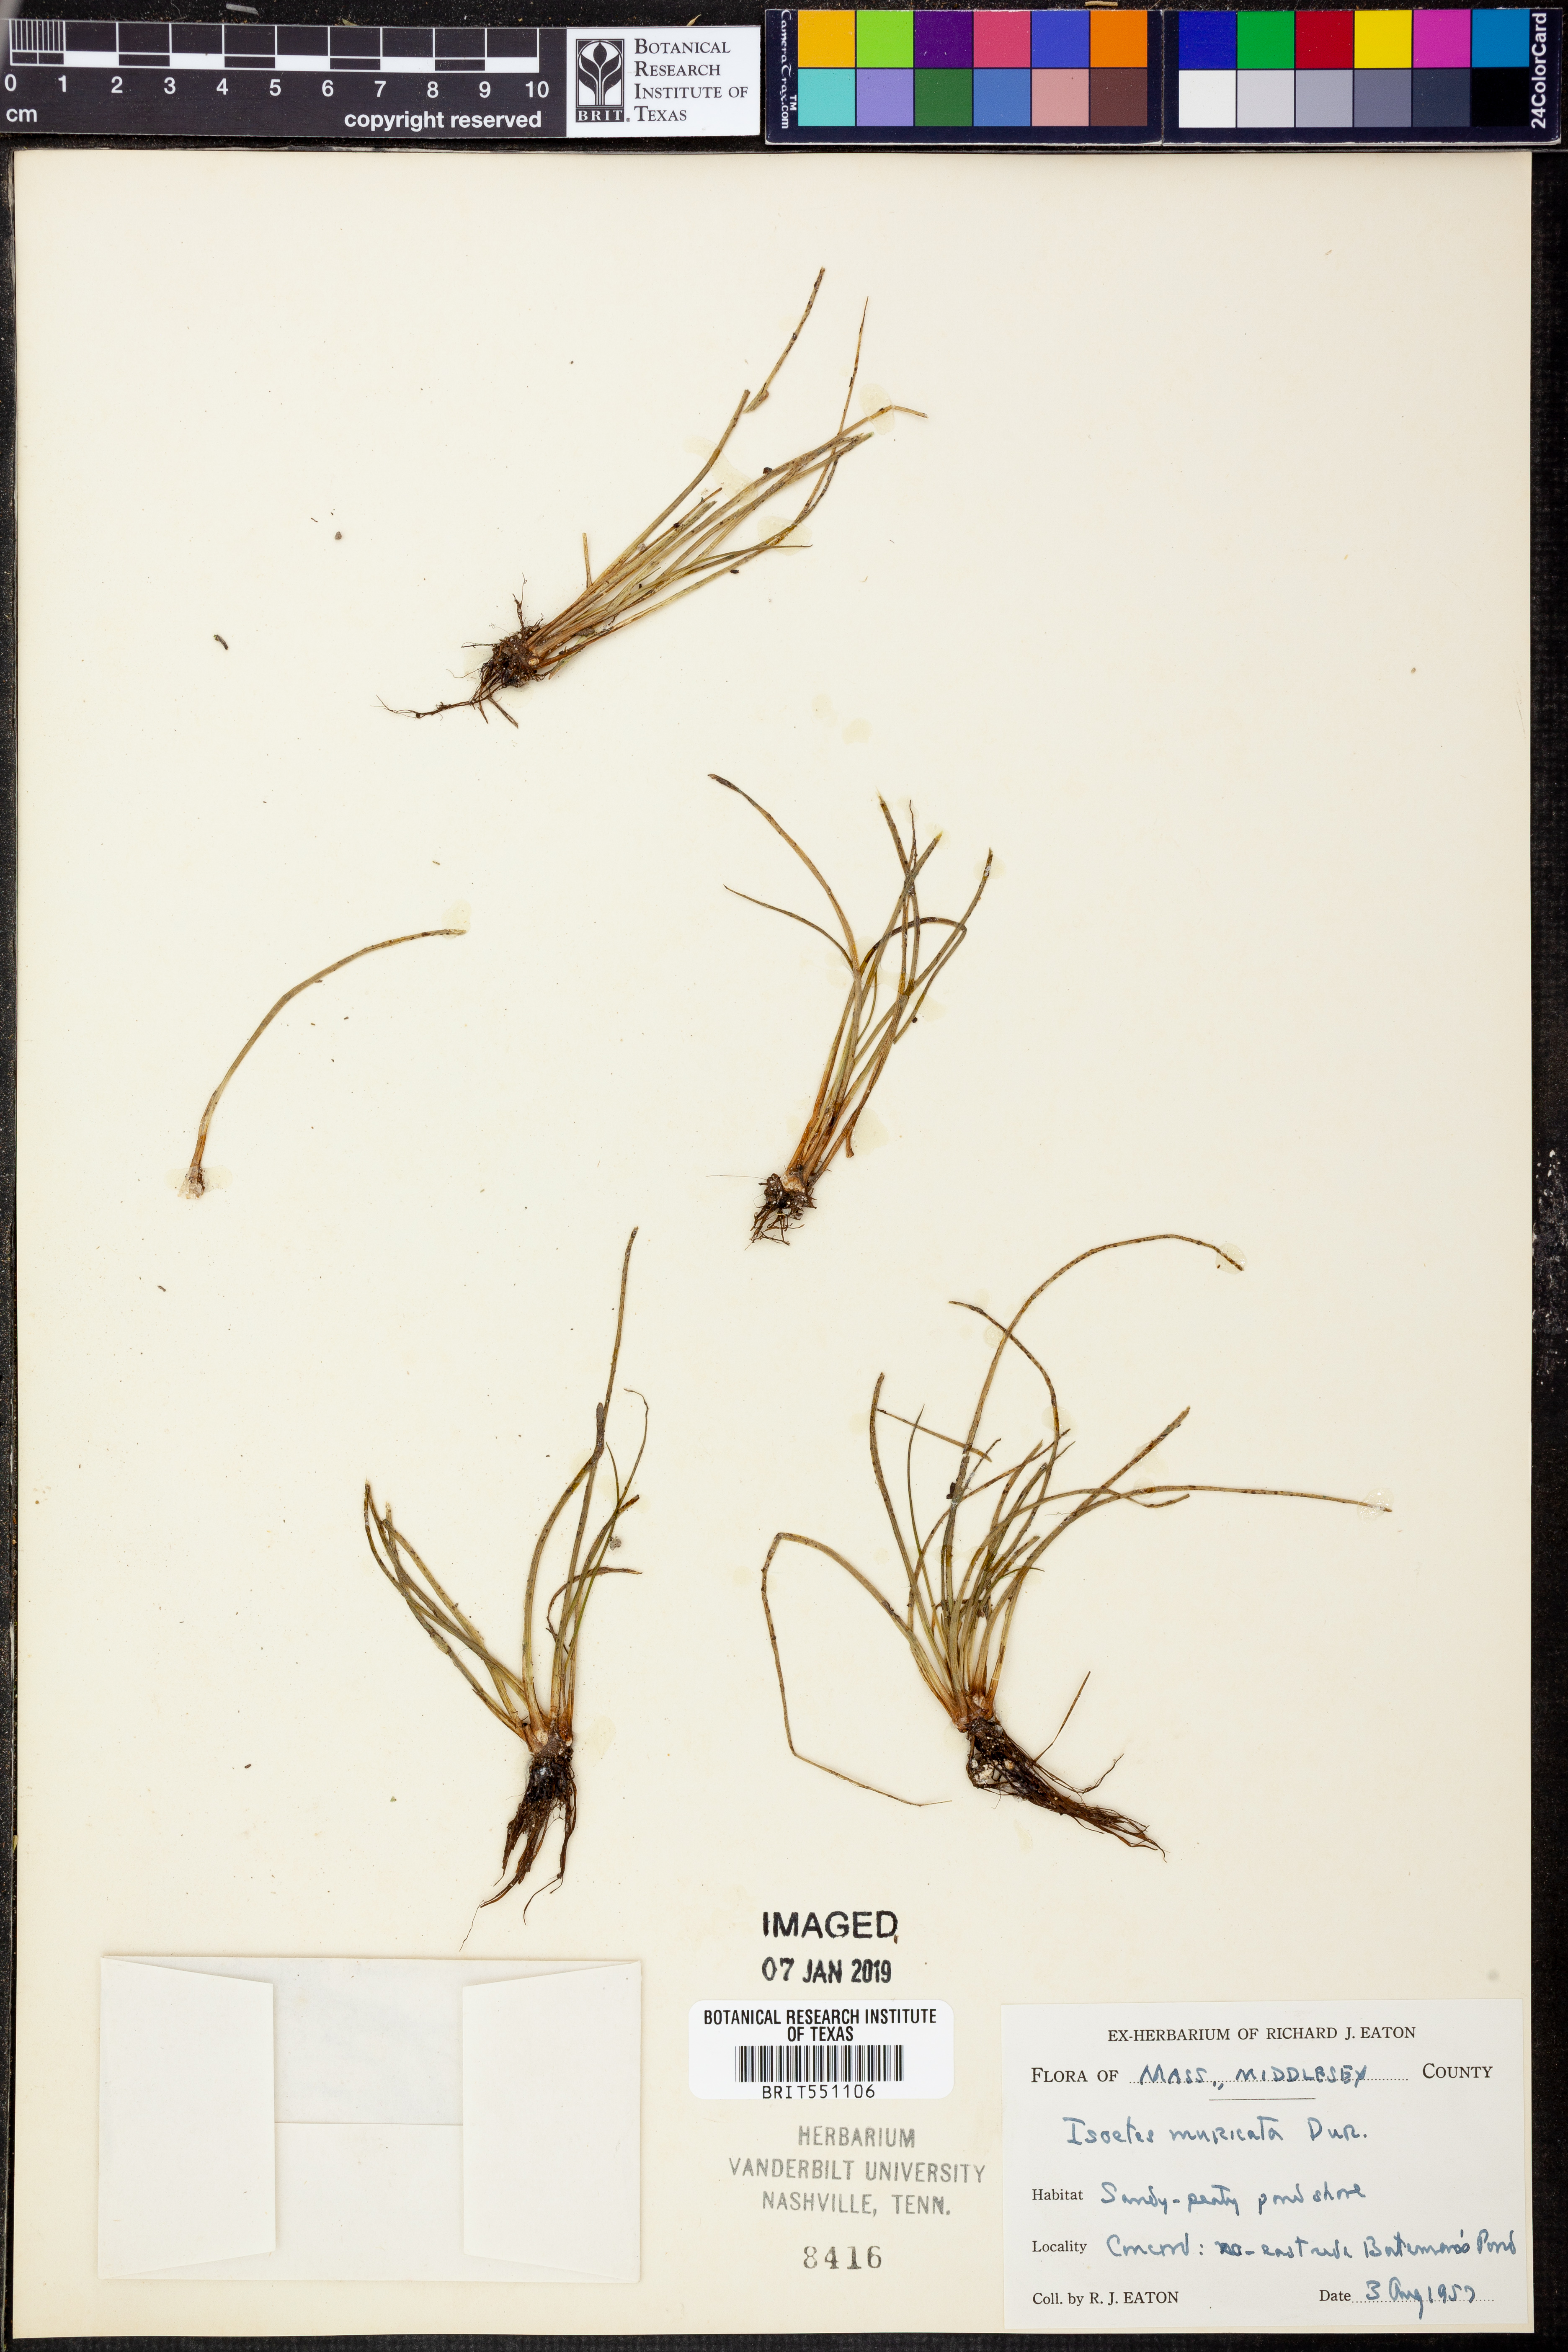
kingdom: Plantae
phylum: Tracheophyta
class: Lycopodiopsida
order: Isoetales
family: Isoetaceae
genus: Isoetes
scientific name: Isoetes echinospora
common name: Spring quillwort
